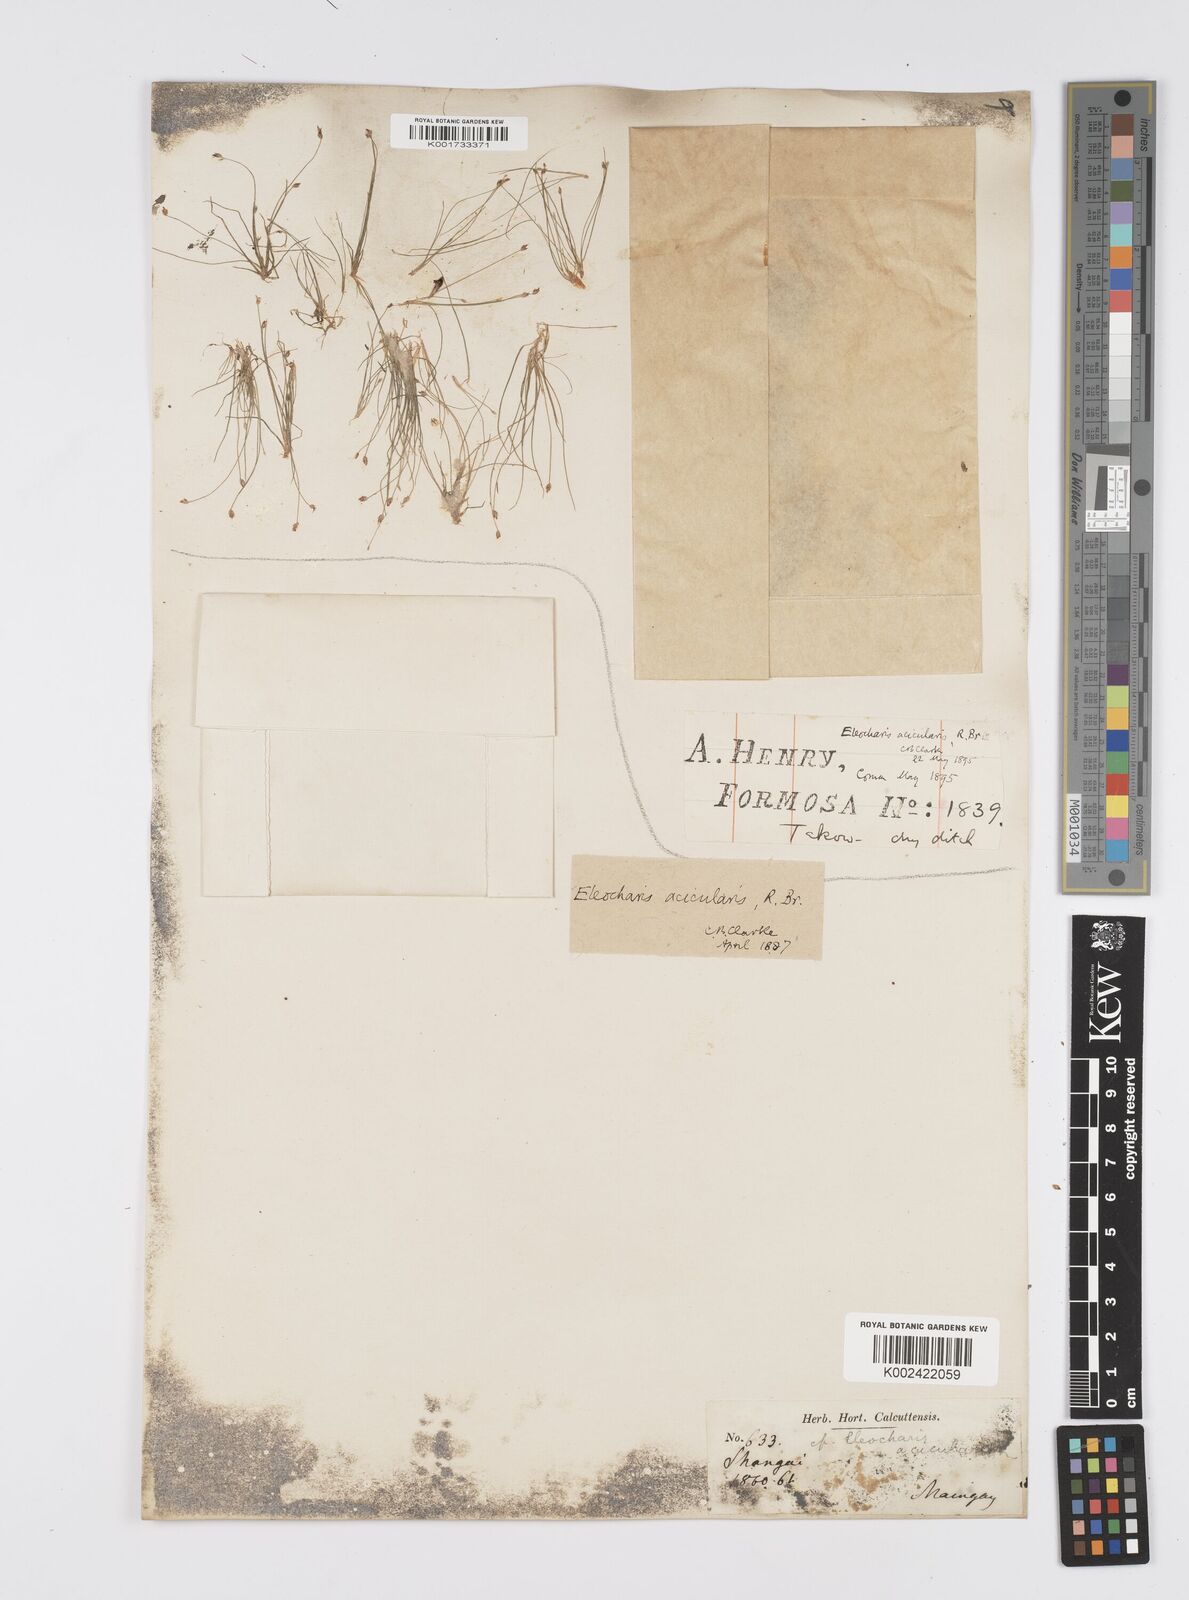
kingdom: Plantae
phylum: Tracheophyta
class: Liliopsida
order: Poales
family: Cyperaceae
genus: Eleocharis
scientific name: Eleocharis acicularis
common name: Needle spike-rush
